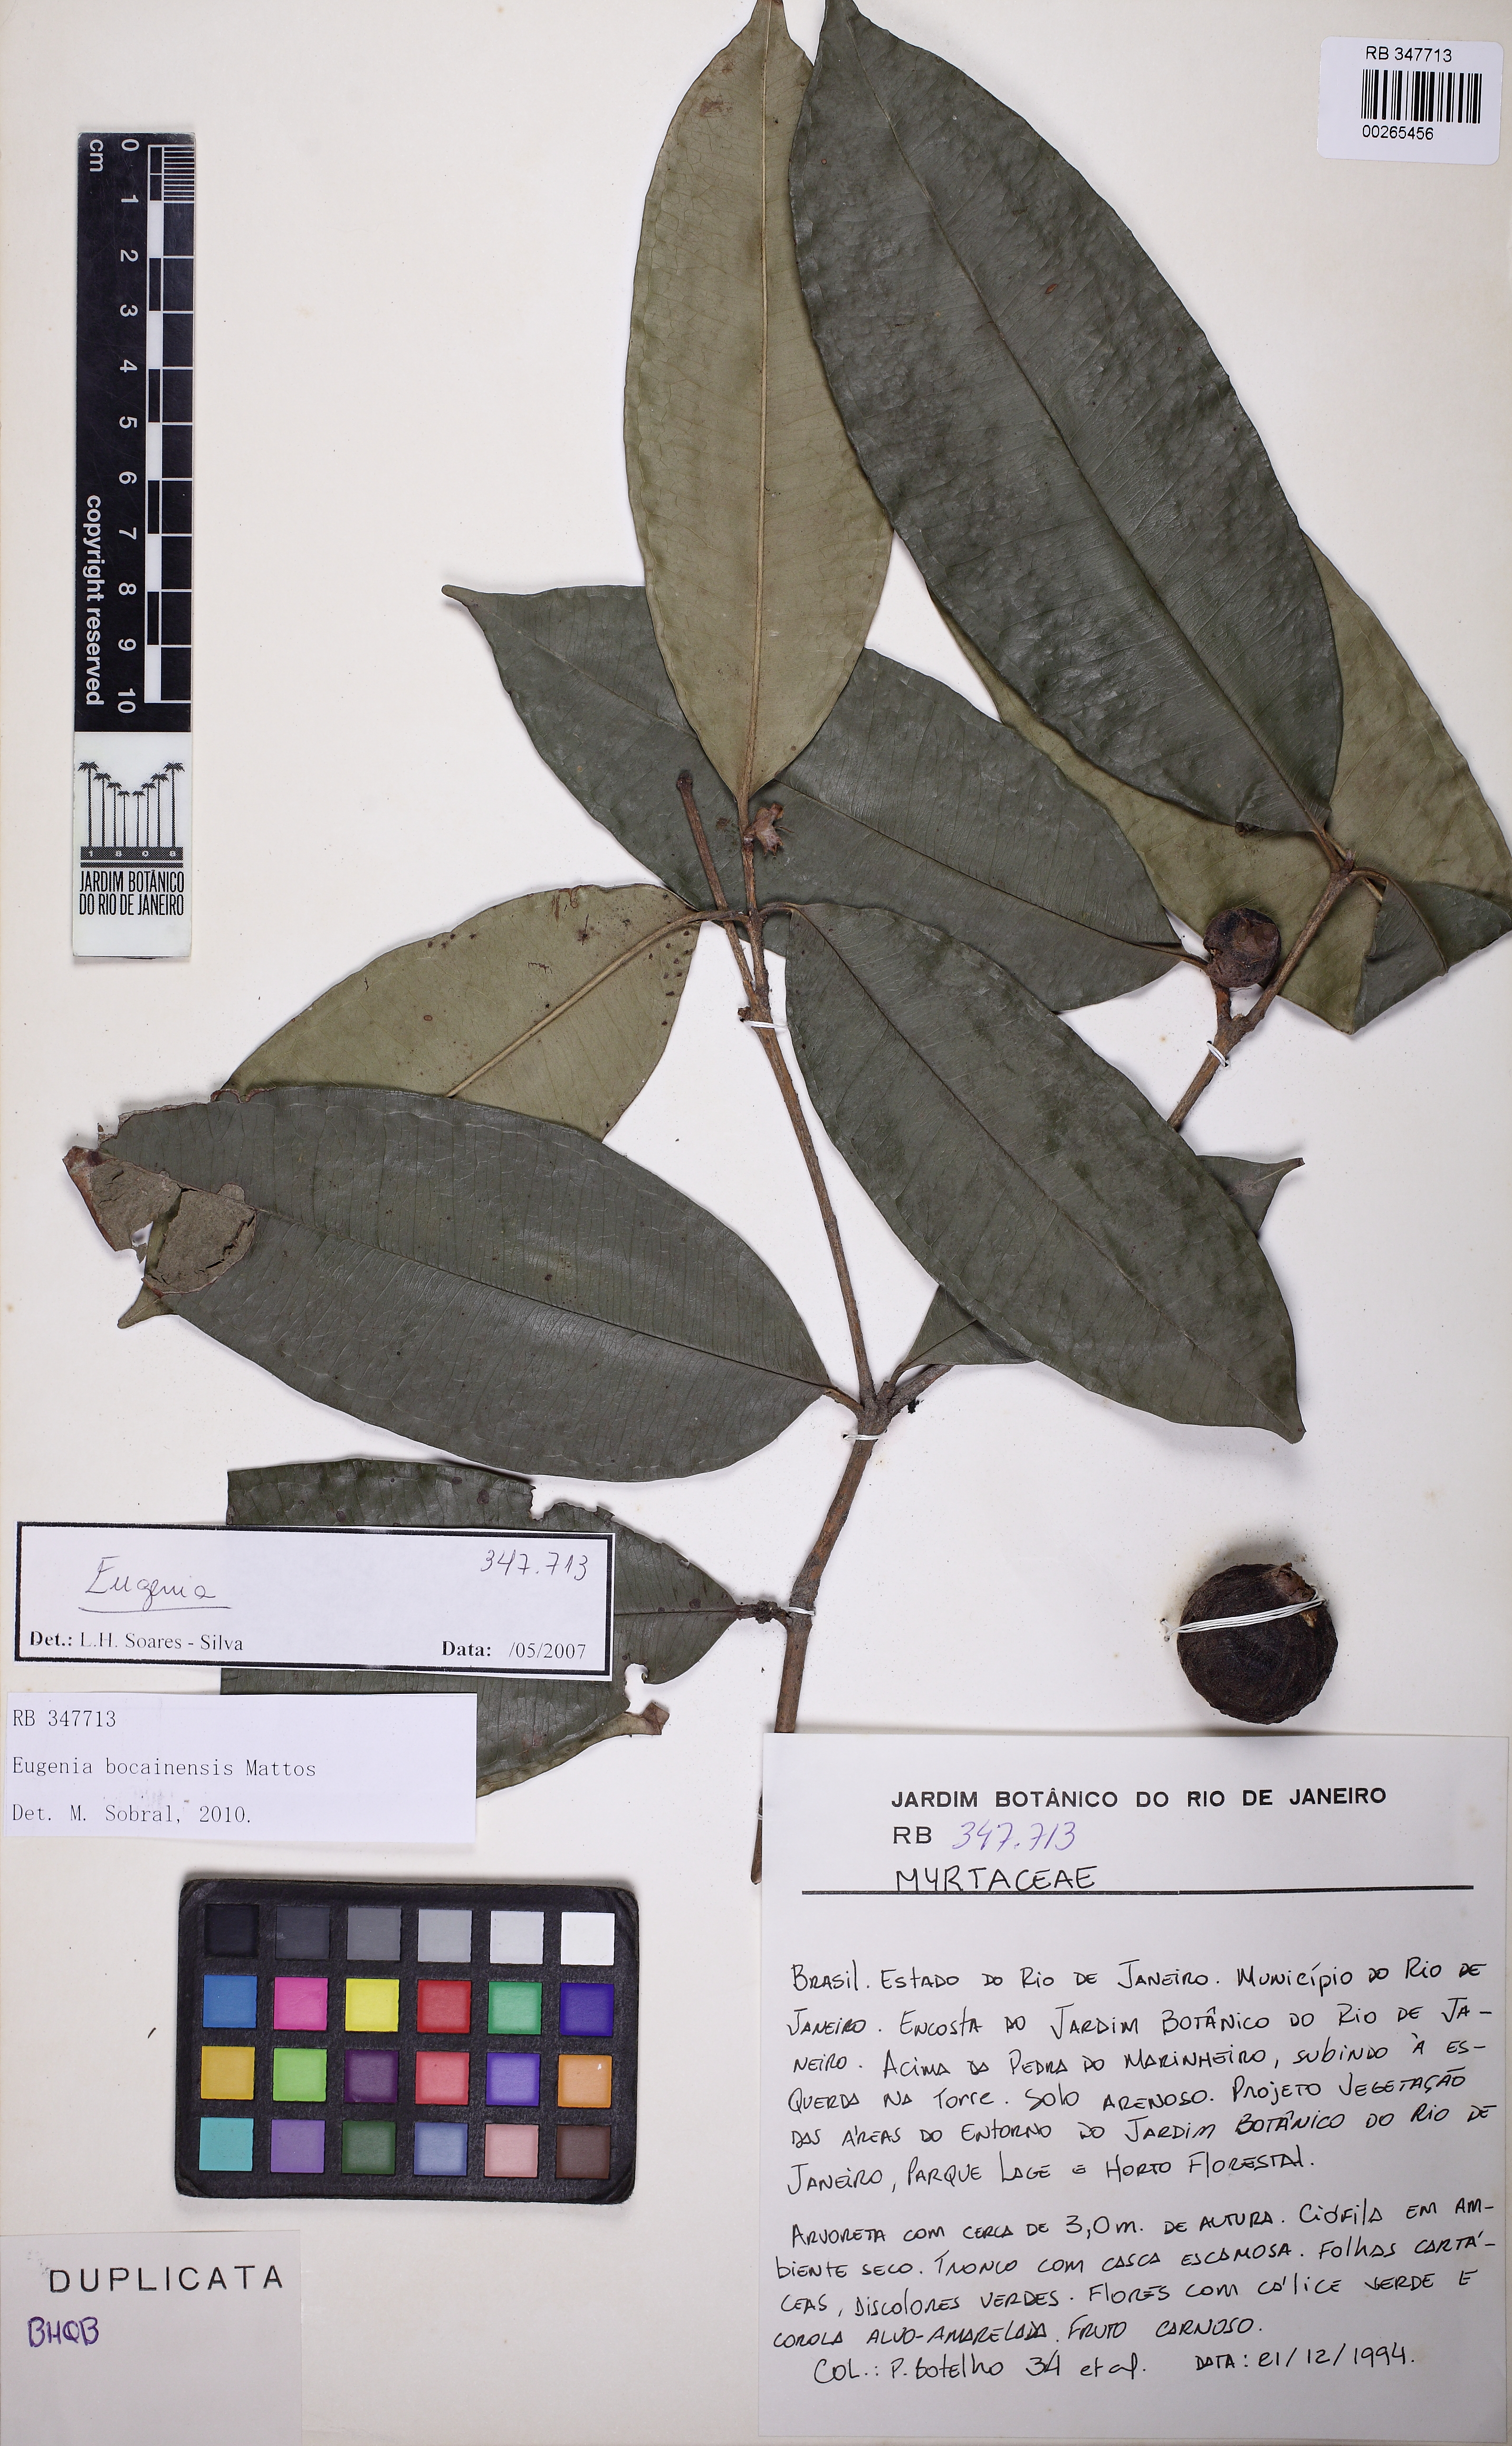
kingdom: Plantae
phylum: Tracheophyta
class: Magnoliopsida
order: Myrtales
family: Myrtaceae
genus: Eugenia
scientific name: Eugenia bocainensis
